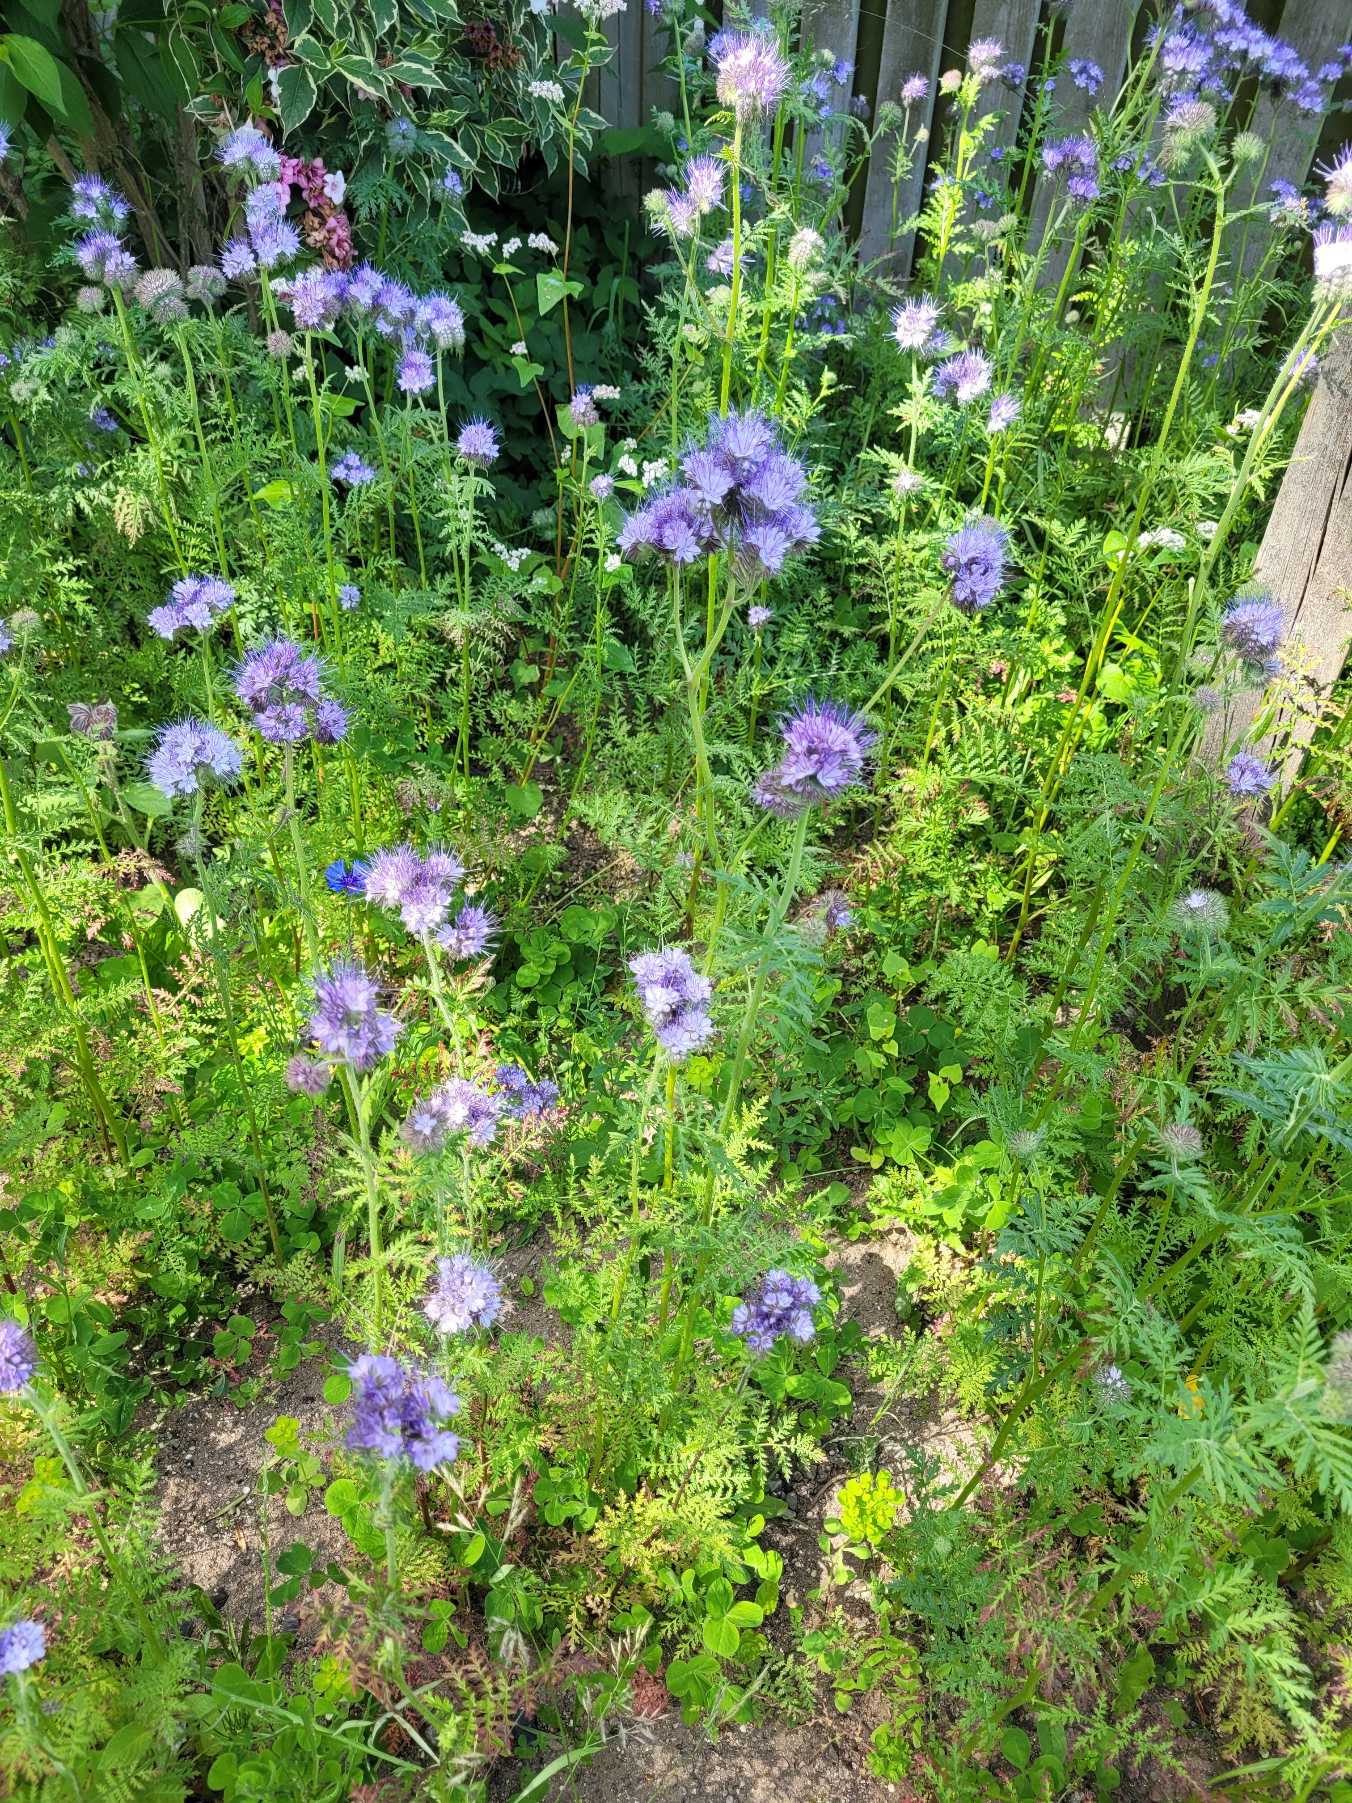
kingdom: Plantae
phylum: Tracheophyta
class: Magnoliopsida
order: Boraginales
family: Hydrophyllaceae
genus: Phacelia
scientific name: Phacelia tanacetifolia
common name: Honningurt
